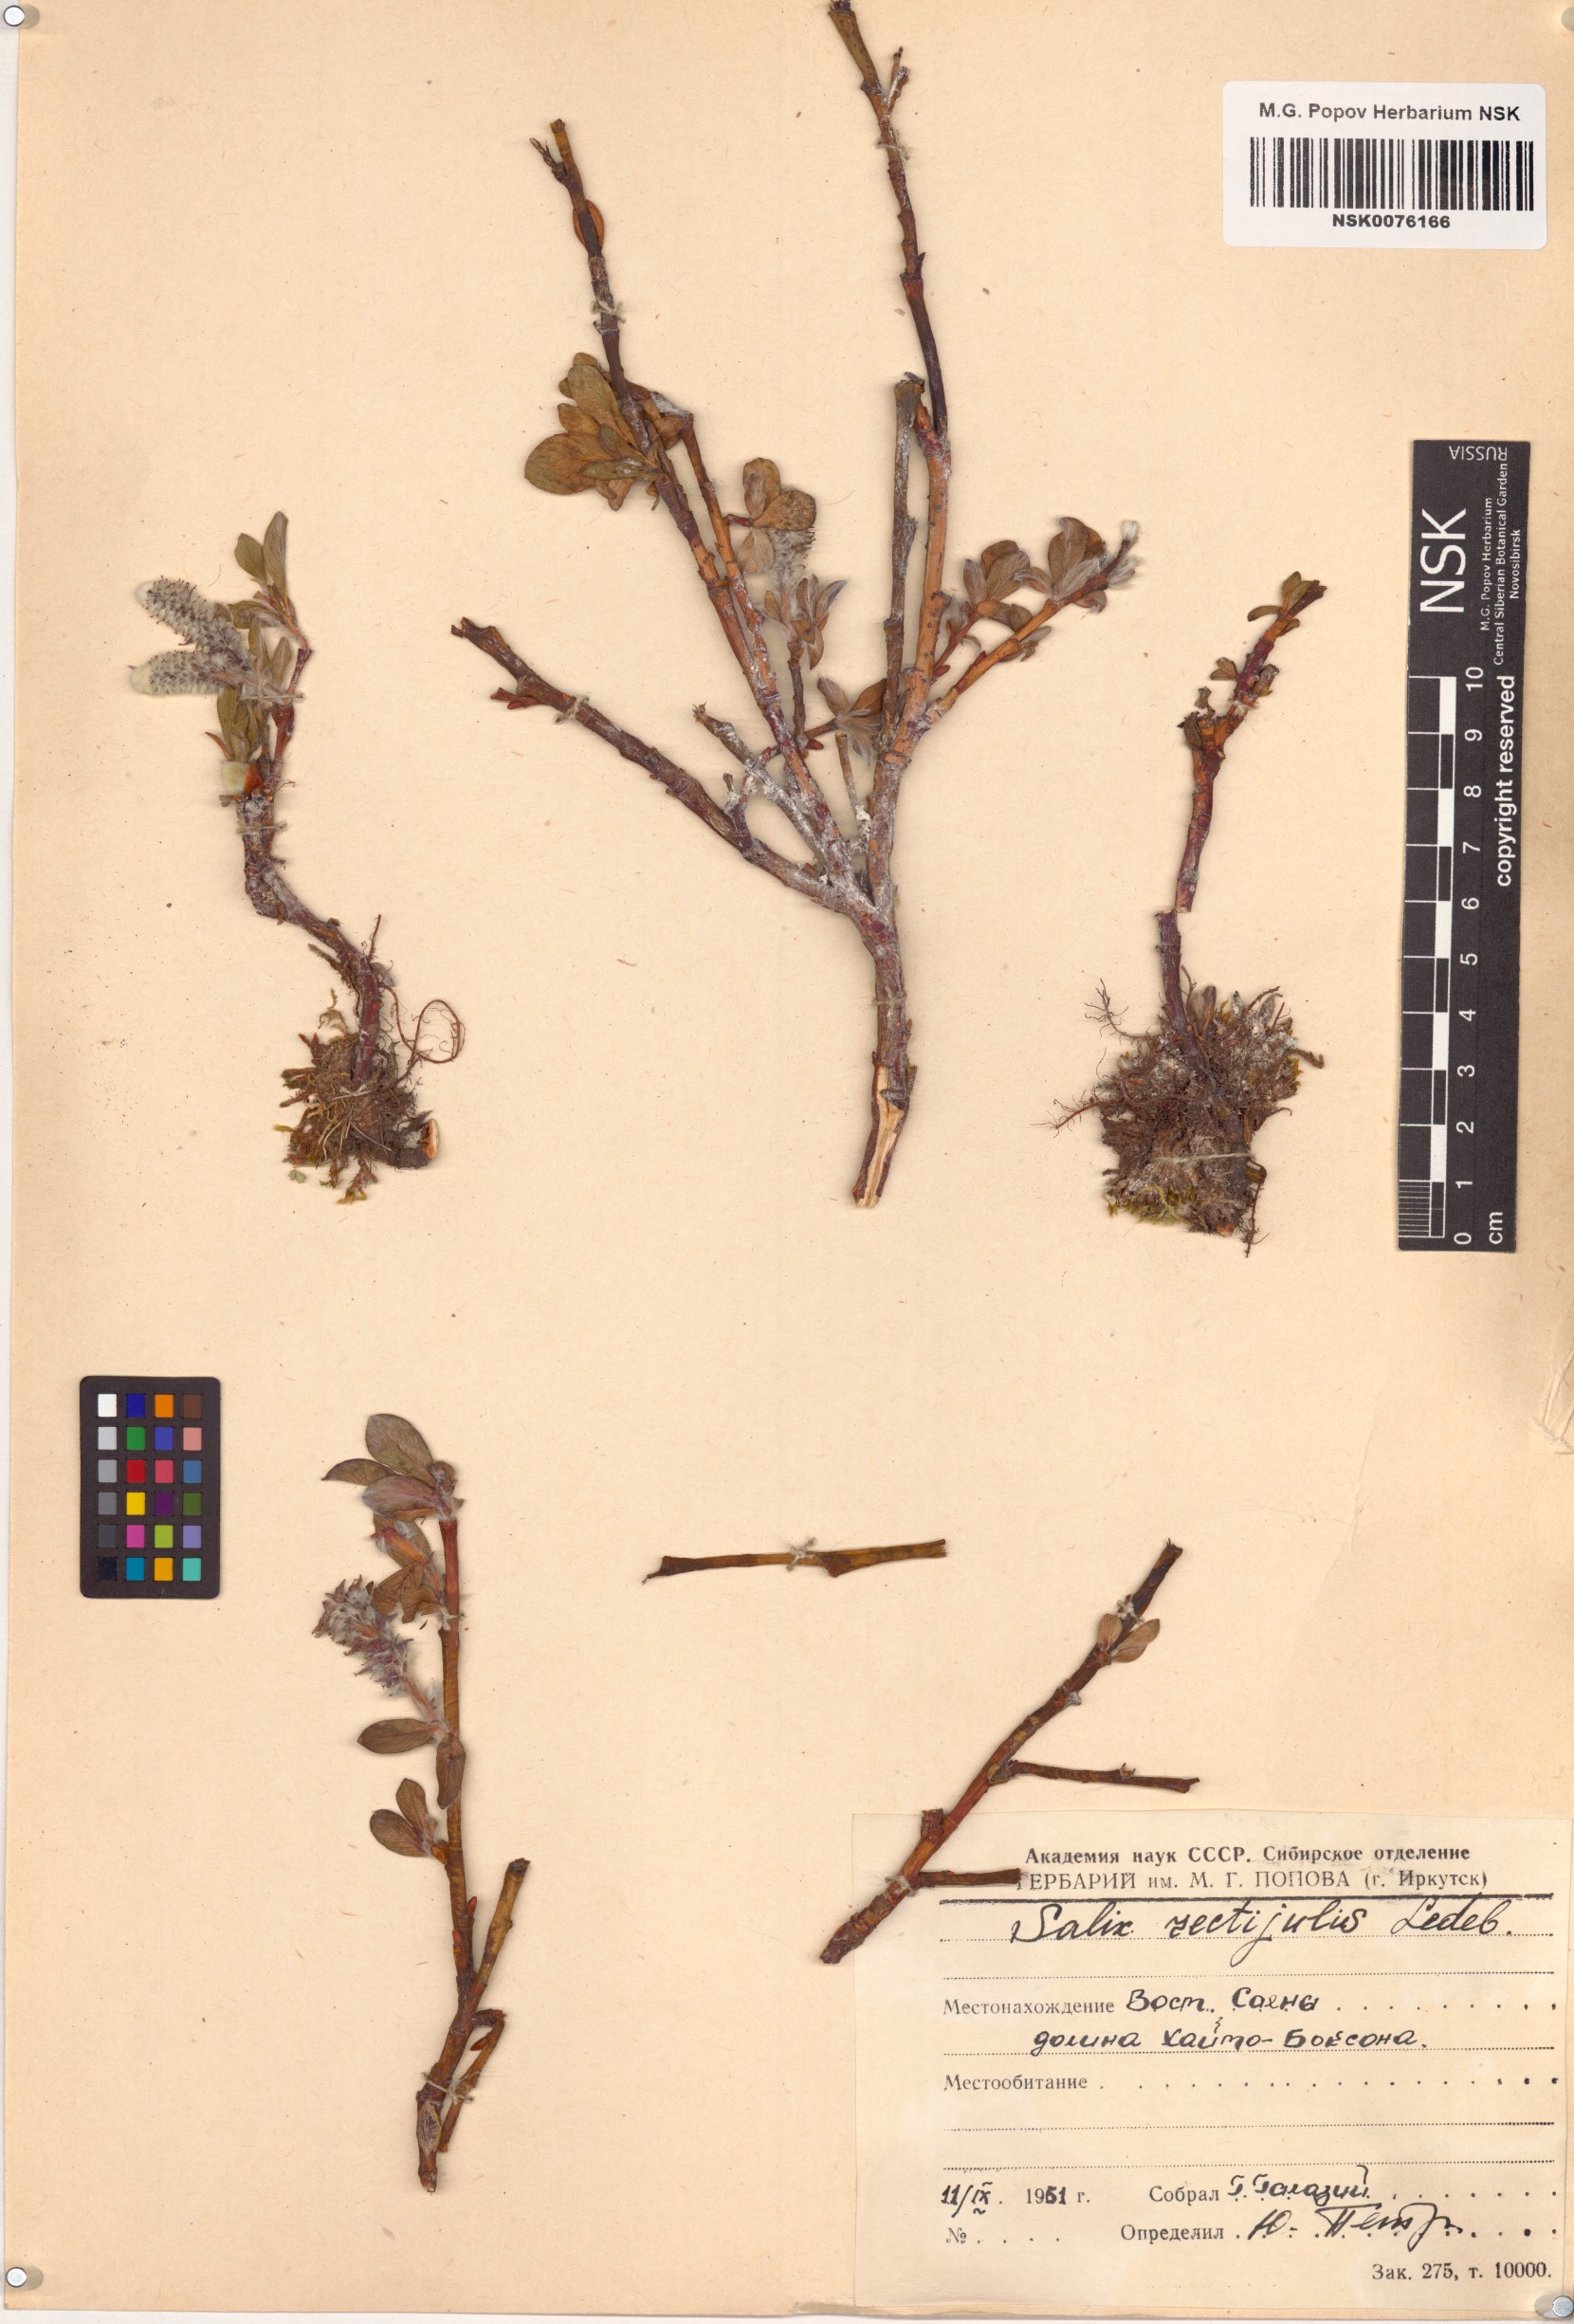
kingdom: Plantae
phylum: Tracheophyta
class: Magnoliopsida
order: Malpighiales
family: Salicaceae
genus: Salix
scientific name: Salix rectijulis
